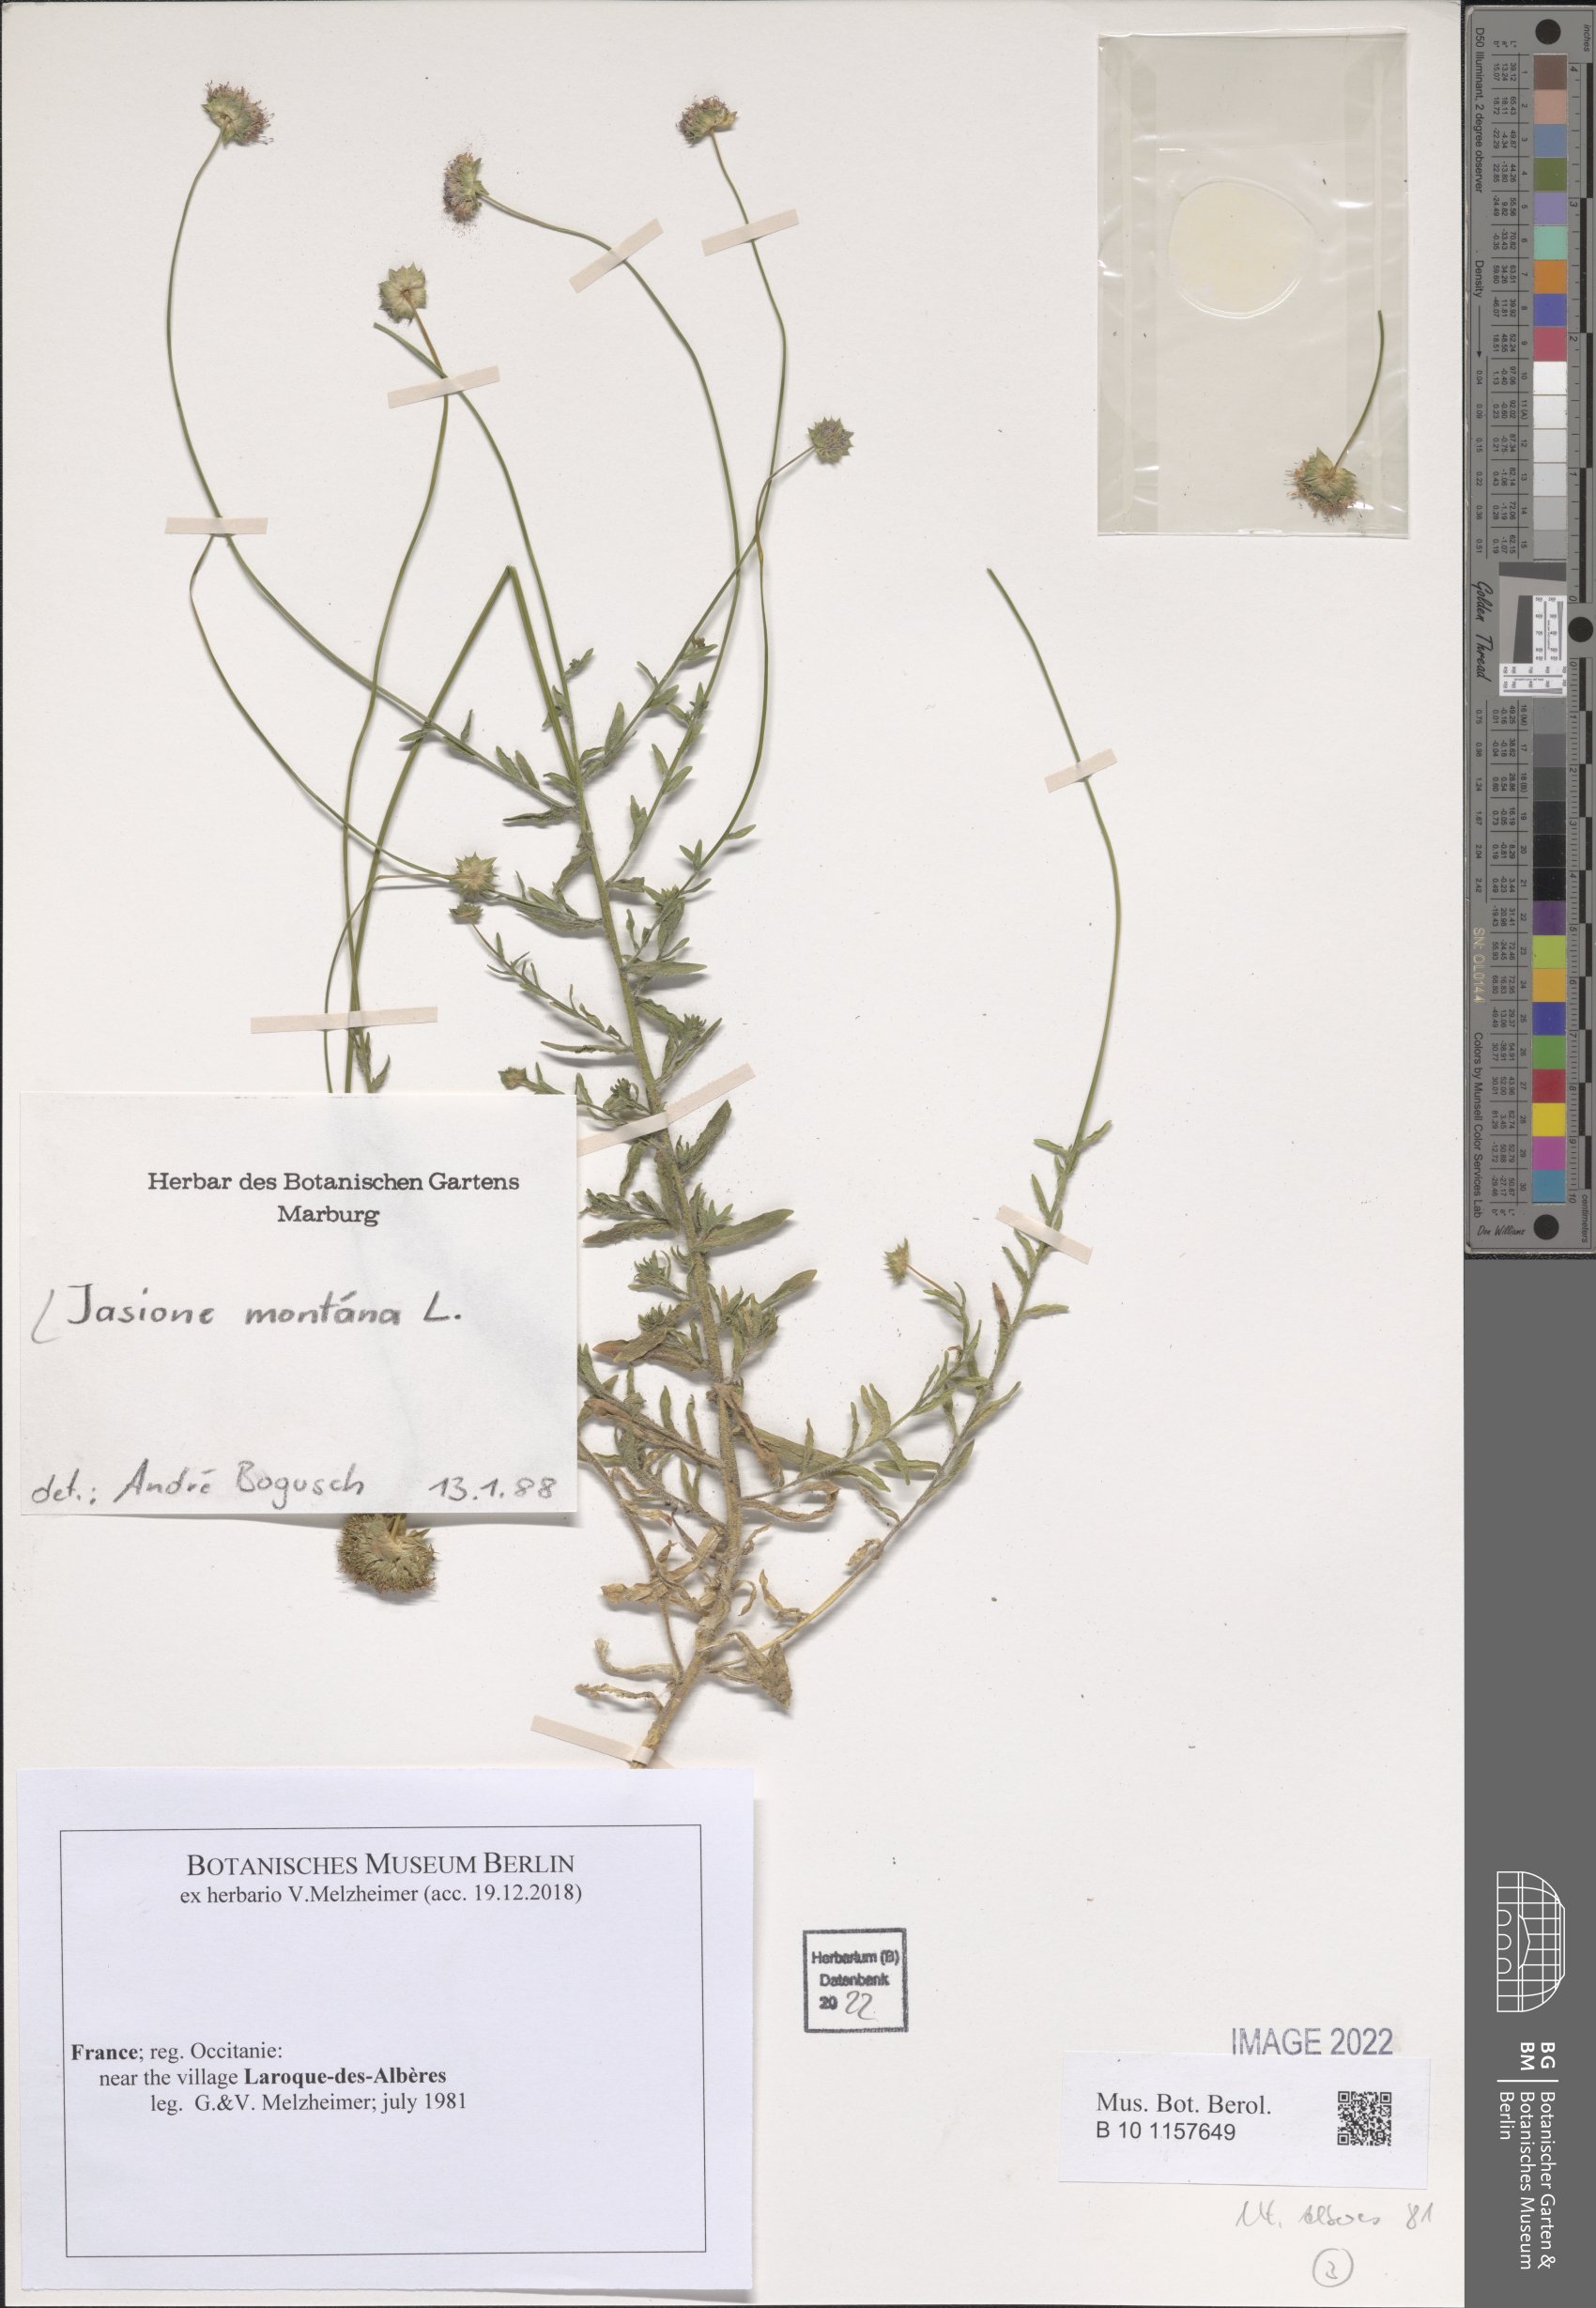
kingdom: Plantae
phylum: Tracheophyta
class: Magnoliopsida
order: Asterales
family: Campanulaceae
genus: Jasione
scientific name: Jasione montana
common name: Sheep's-bit
